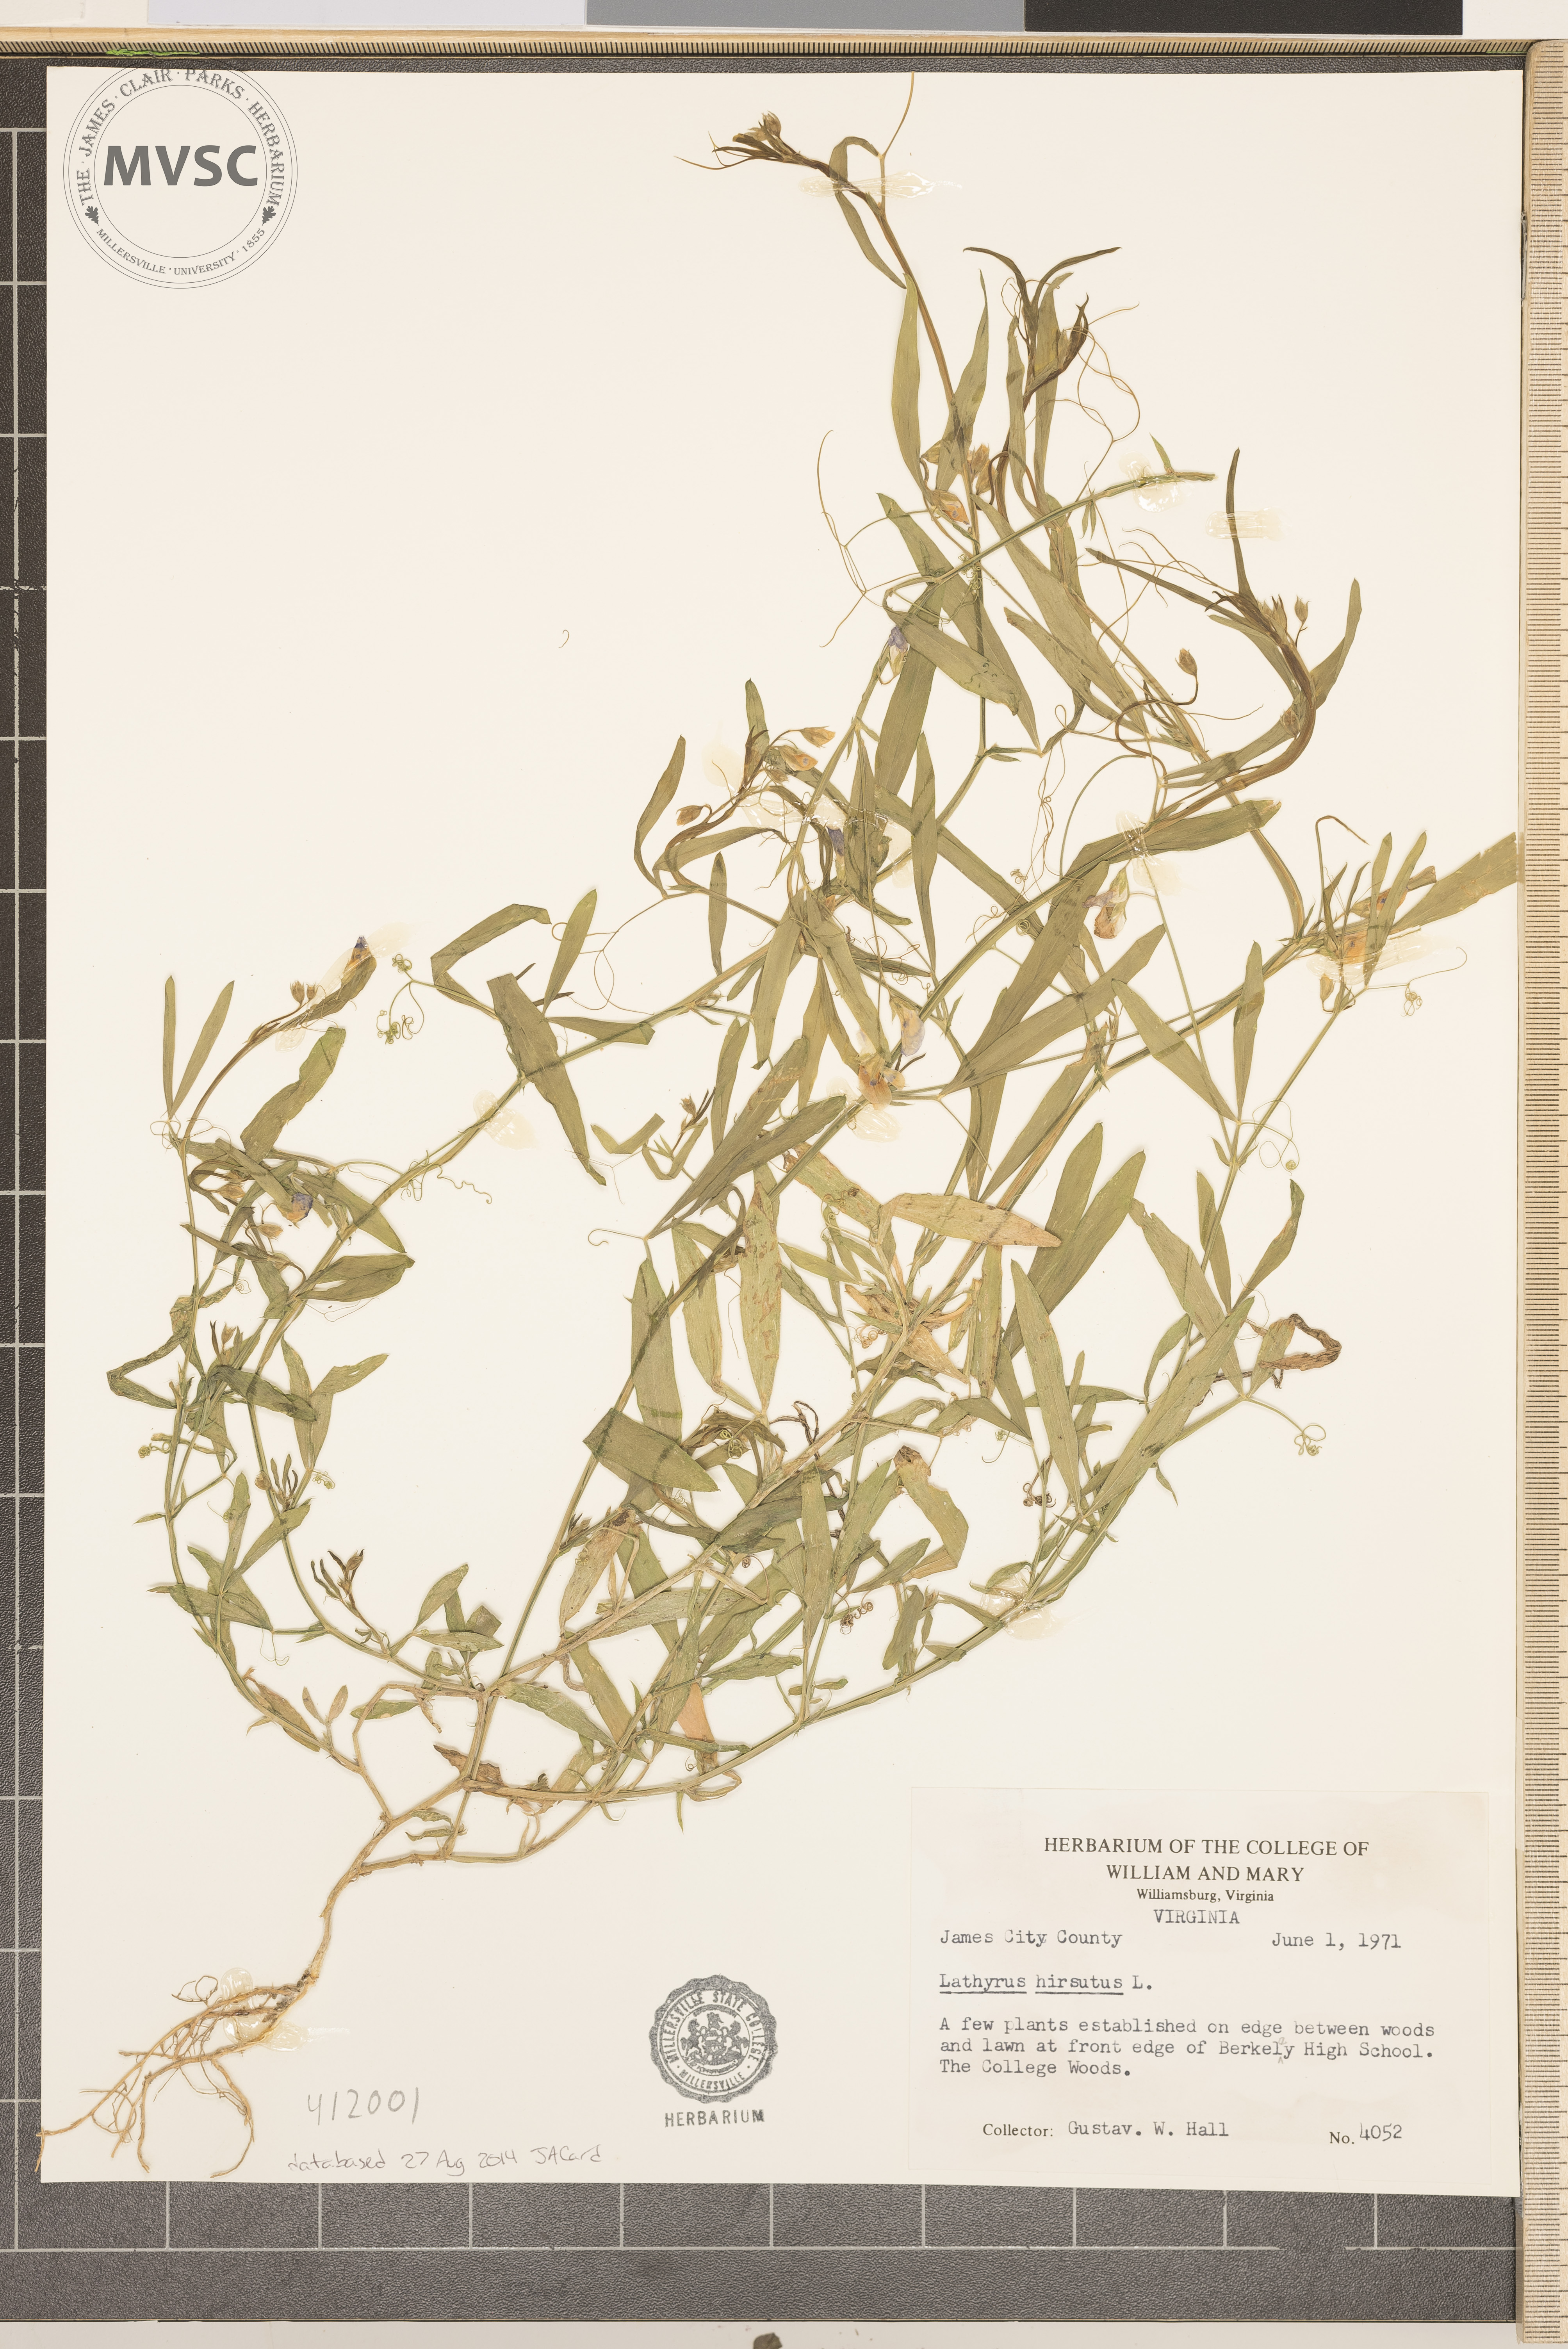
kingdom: Plantae
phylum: Tracheophyta
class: Magnoliopsida
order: Fabales
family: Fabaceae
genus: Lathyrus
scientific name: Lathyrus hirsutus
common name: Hairy vetchling
